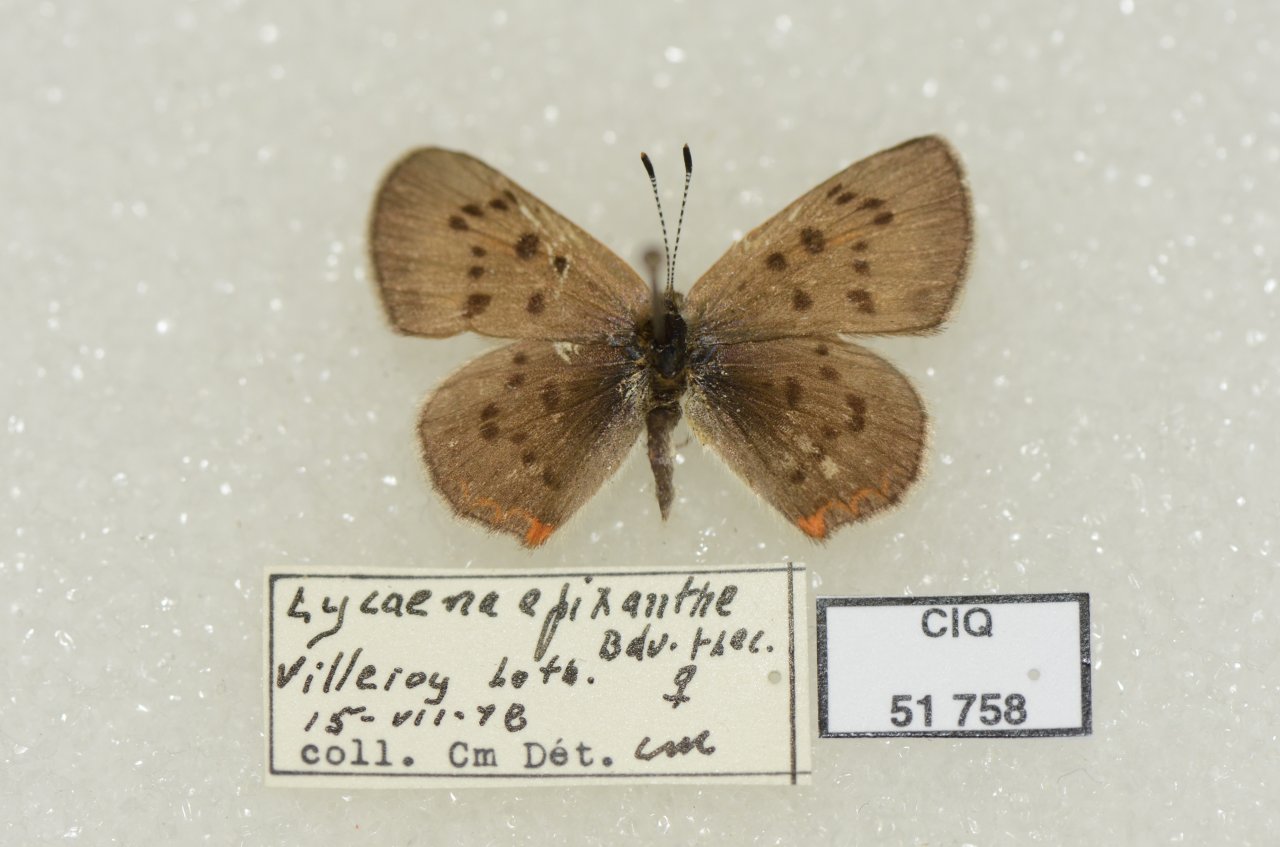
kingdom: Animalia
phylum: Arthropoda
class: Insecta
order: Lepidoptera
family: Sesiidae
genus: Sesia
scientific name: Sesia Lycaena epixanthe
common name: Bog Copper
